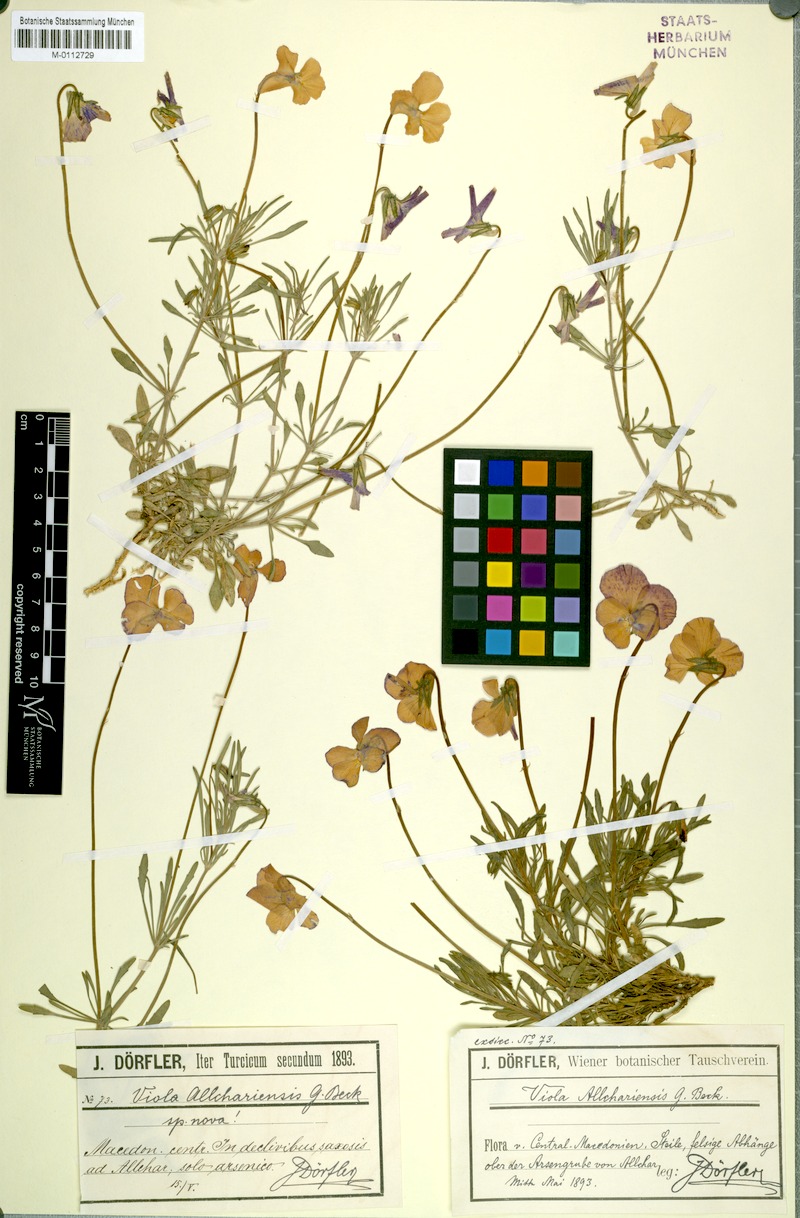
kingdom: Plantae
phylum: Tracheophyta
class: Magnoliopsida
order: Malpighiales
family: Violaceae
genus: Viola
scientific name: Viola allchariensis
